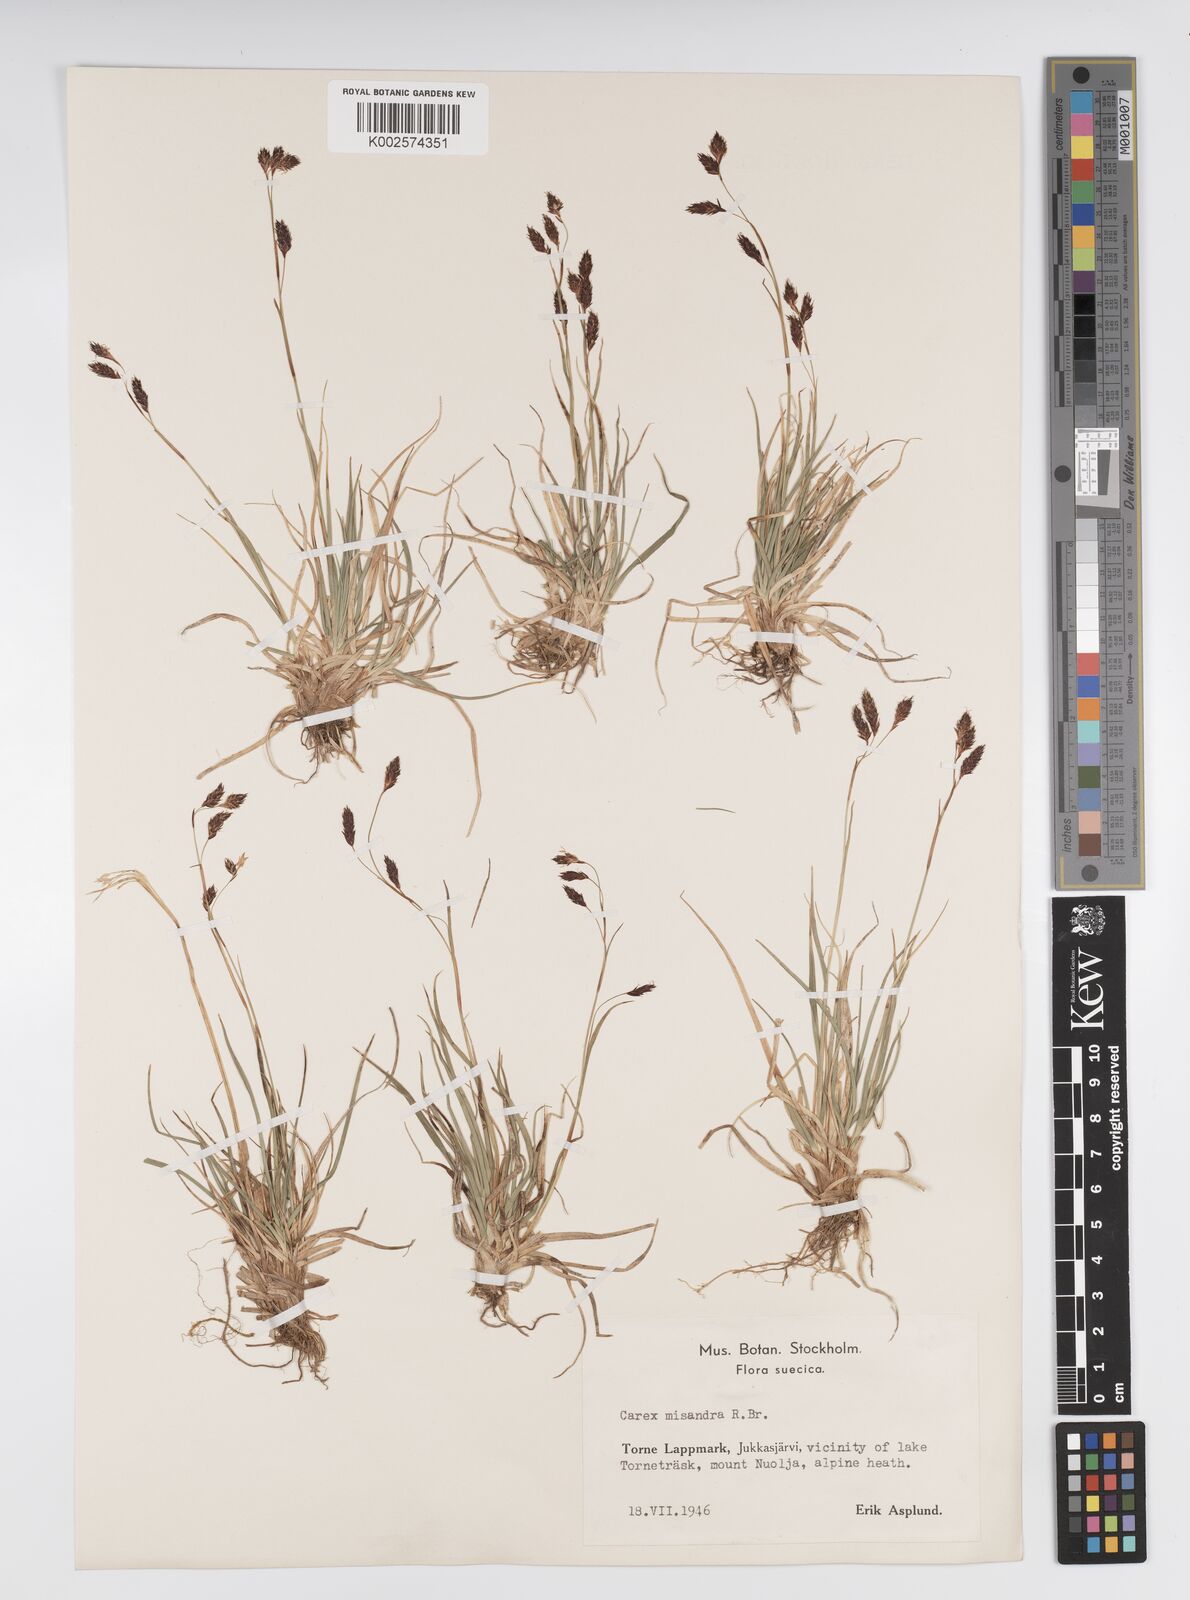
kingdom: Plantae
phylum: Tracheophyta
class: Liliopsida
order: Poales
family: Cyperaceae
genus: Carex
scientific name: Carex fuliginosa
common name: Few-flowered sedge
